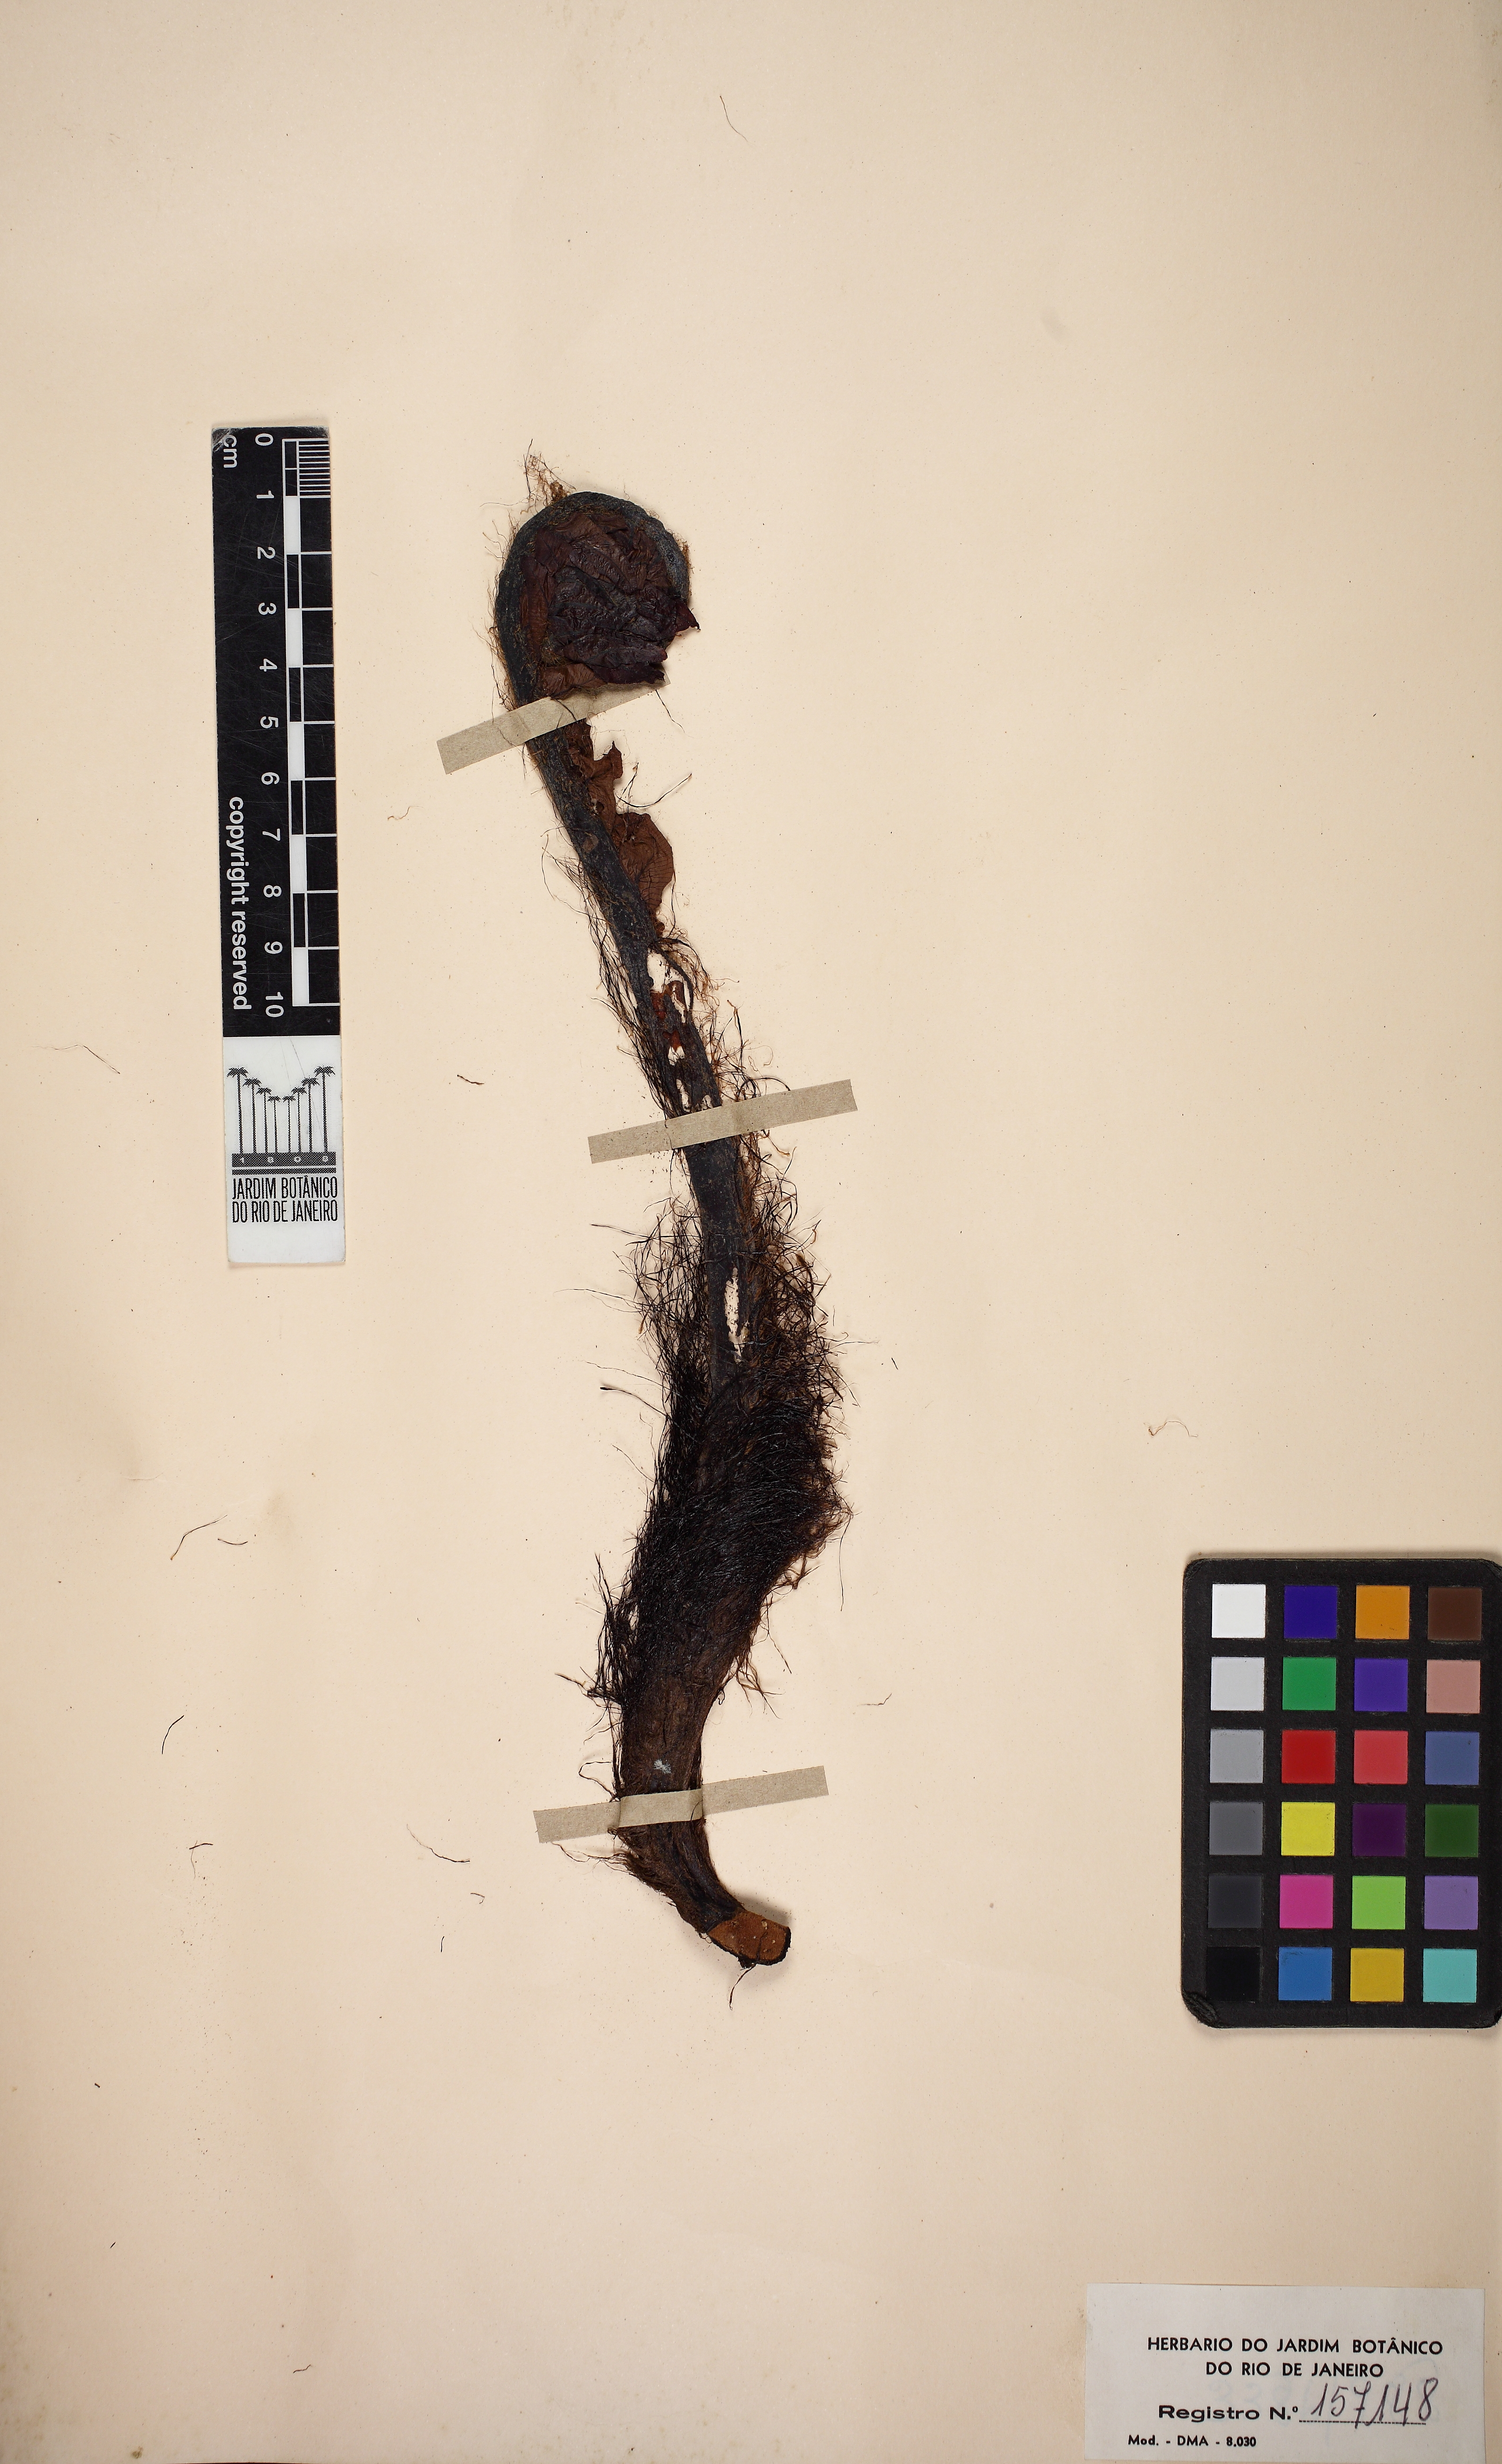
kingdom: Plantae
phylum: Tracheophyta
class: Polypodiopsida
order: Polypodiales
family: Blechnaceae
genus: Neoblechnum
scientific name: Neoblechnum brasiliense
